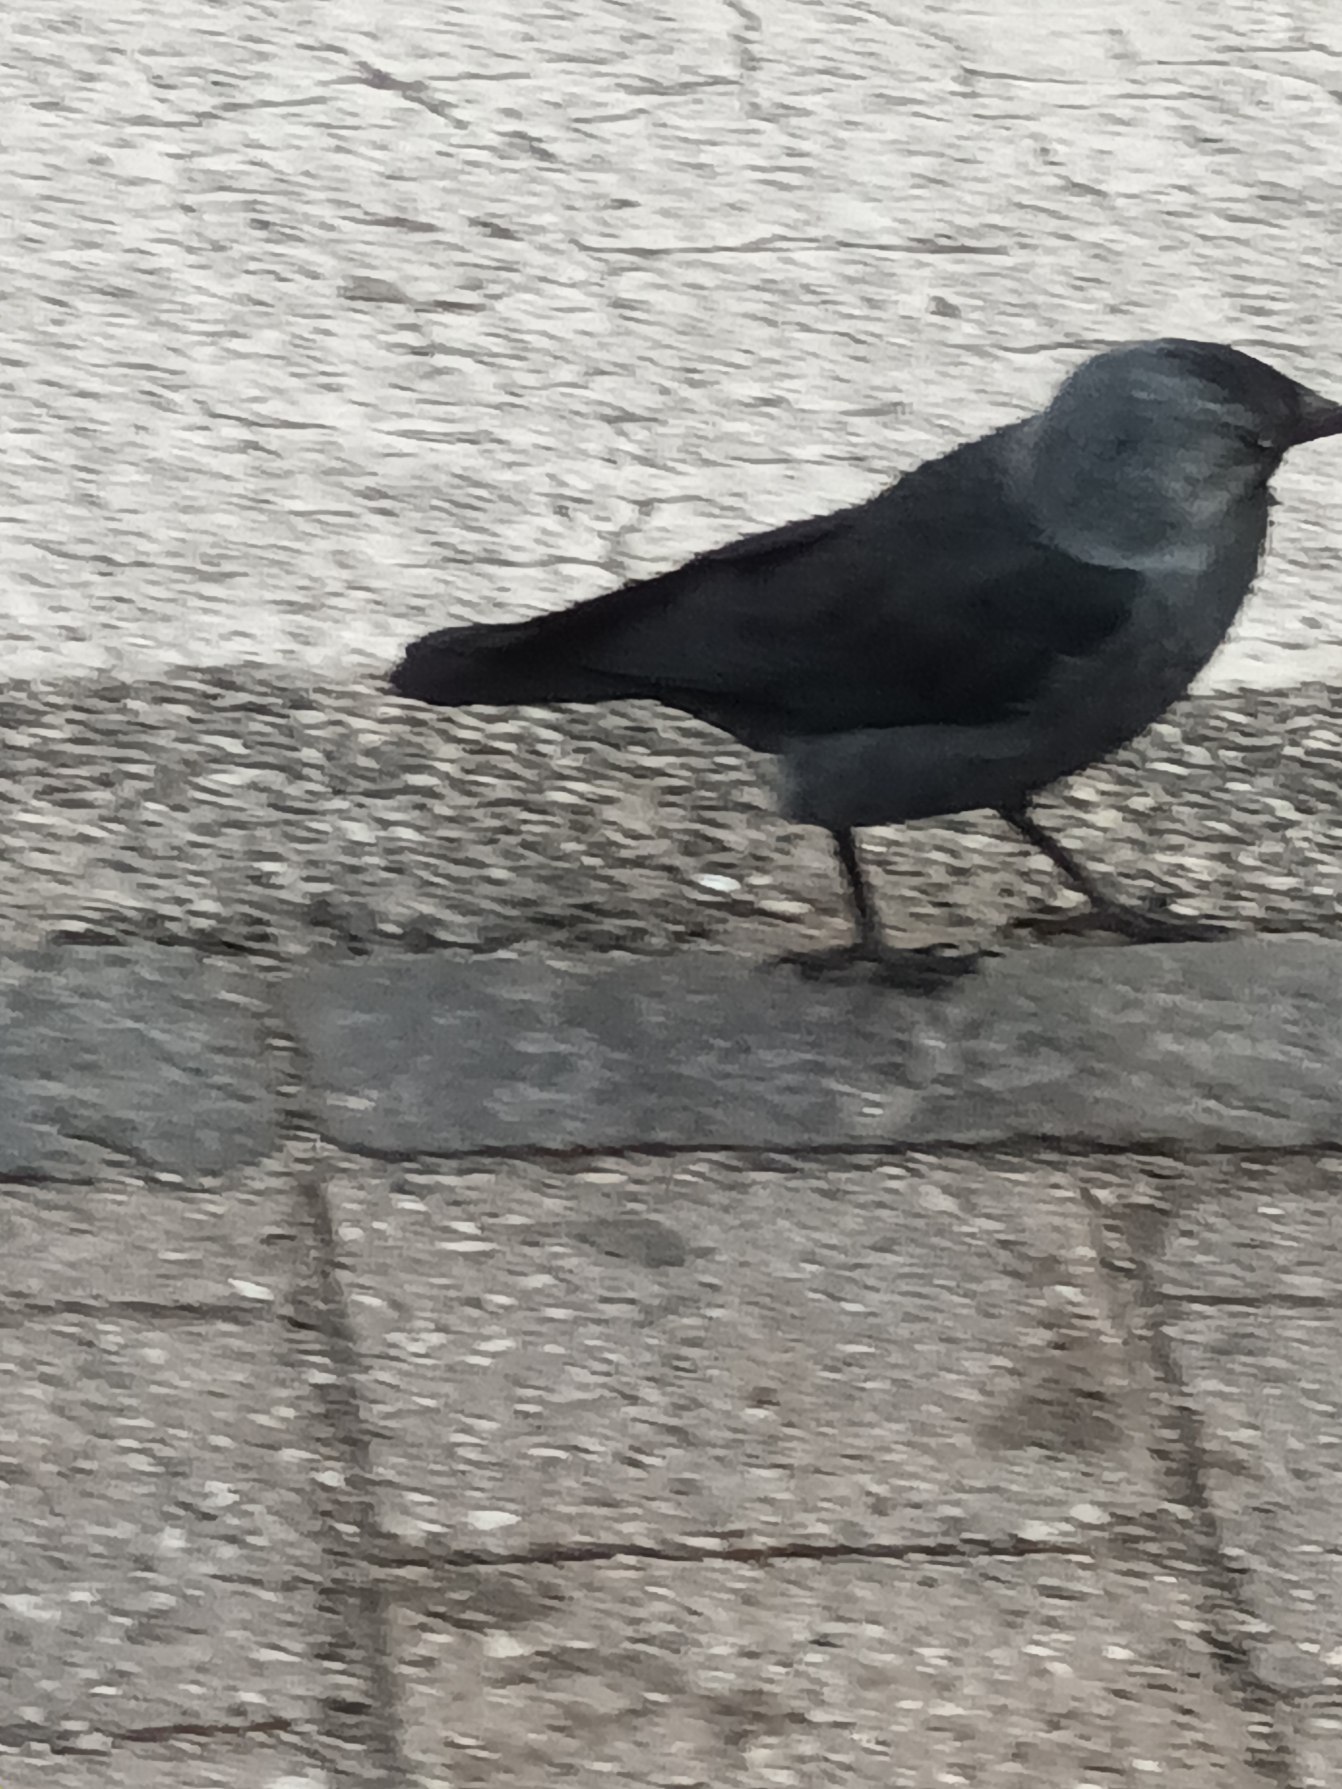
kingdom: Animalia
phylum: Chordata
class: Aves
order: Passeriformes
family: Corvidae
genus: Coloeus
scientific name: Coloeus monedula
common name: Allike
